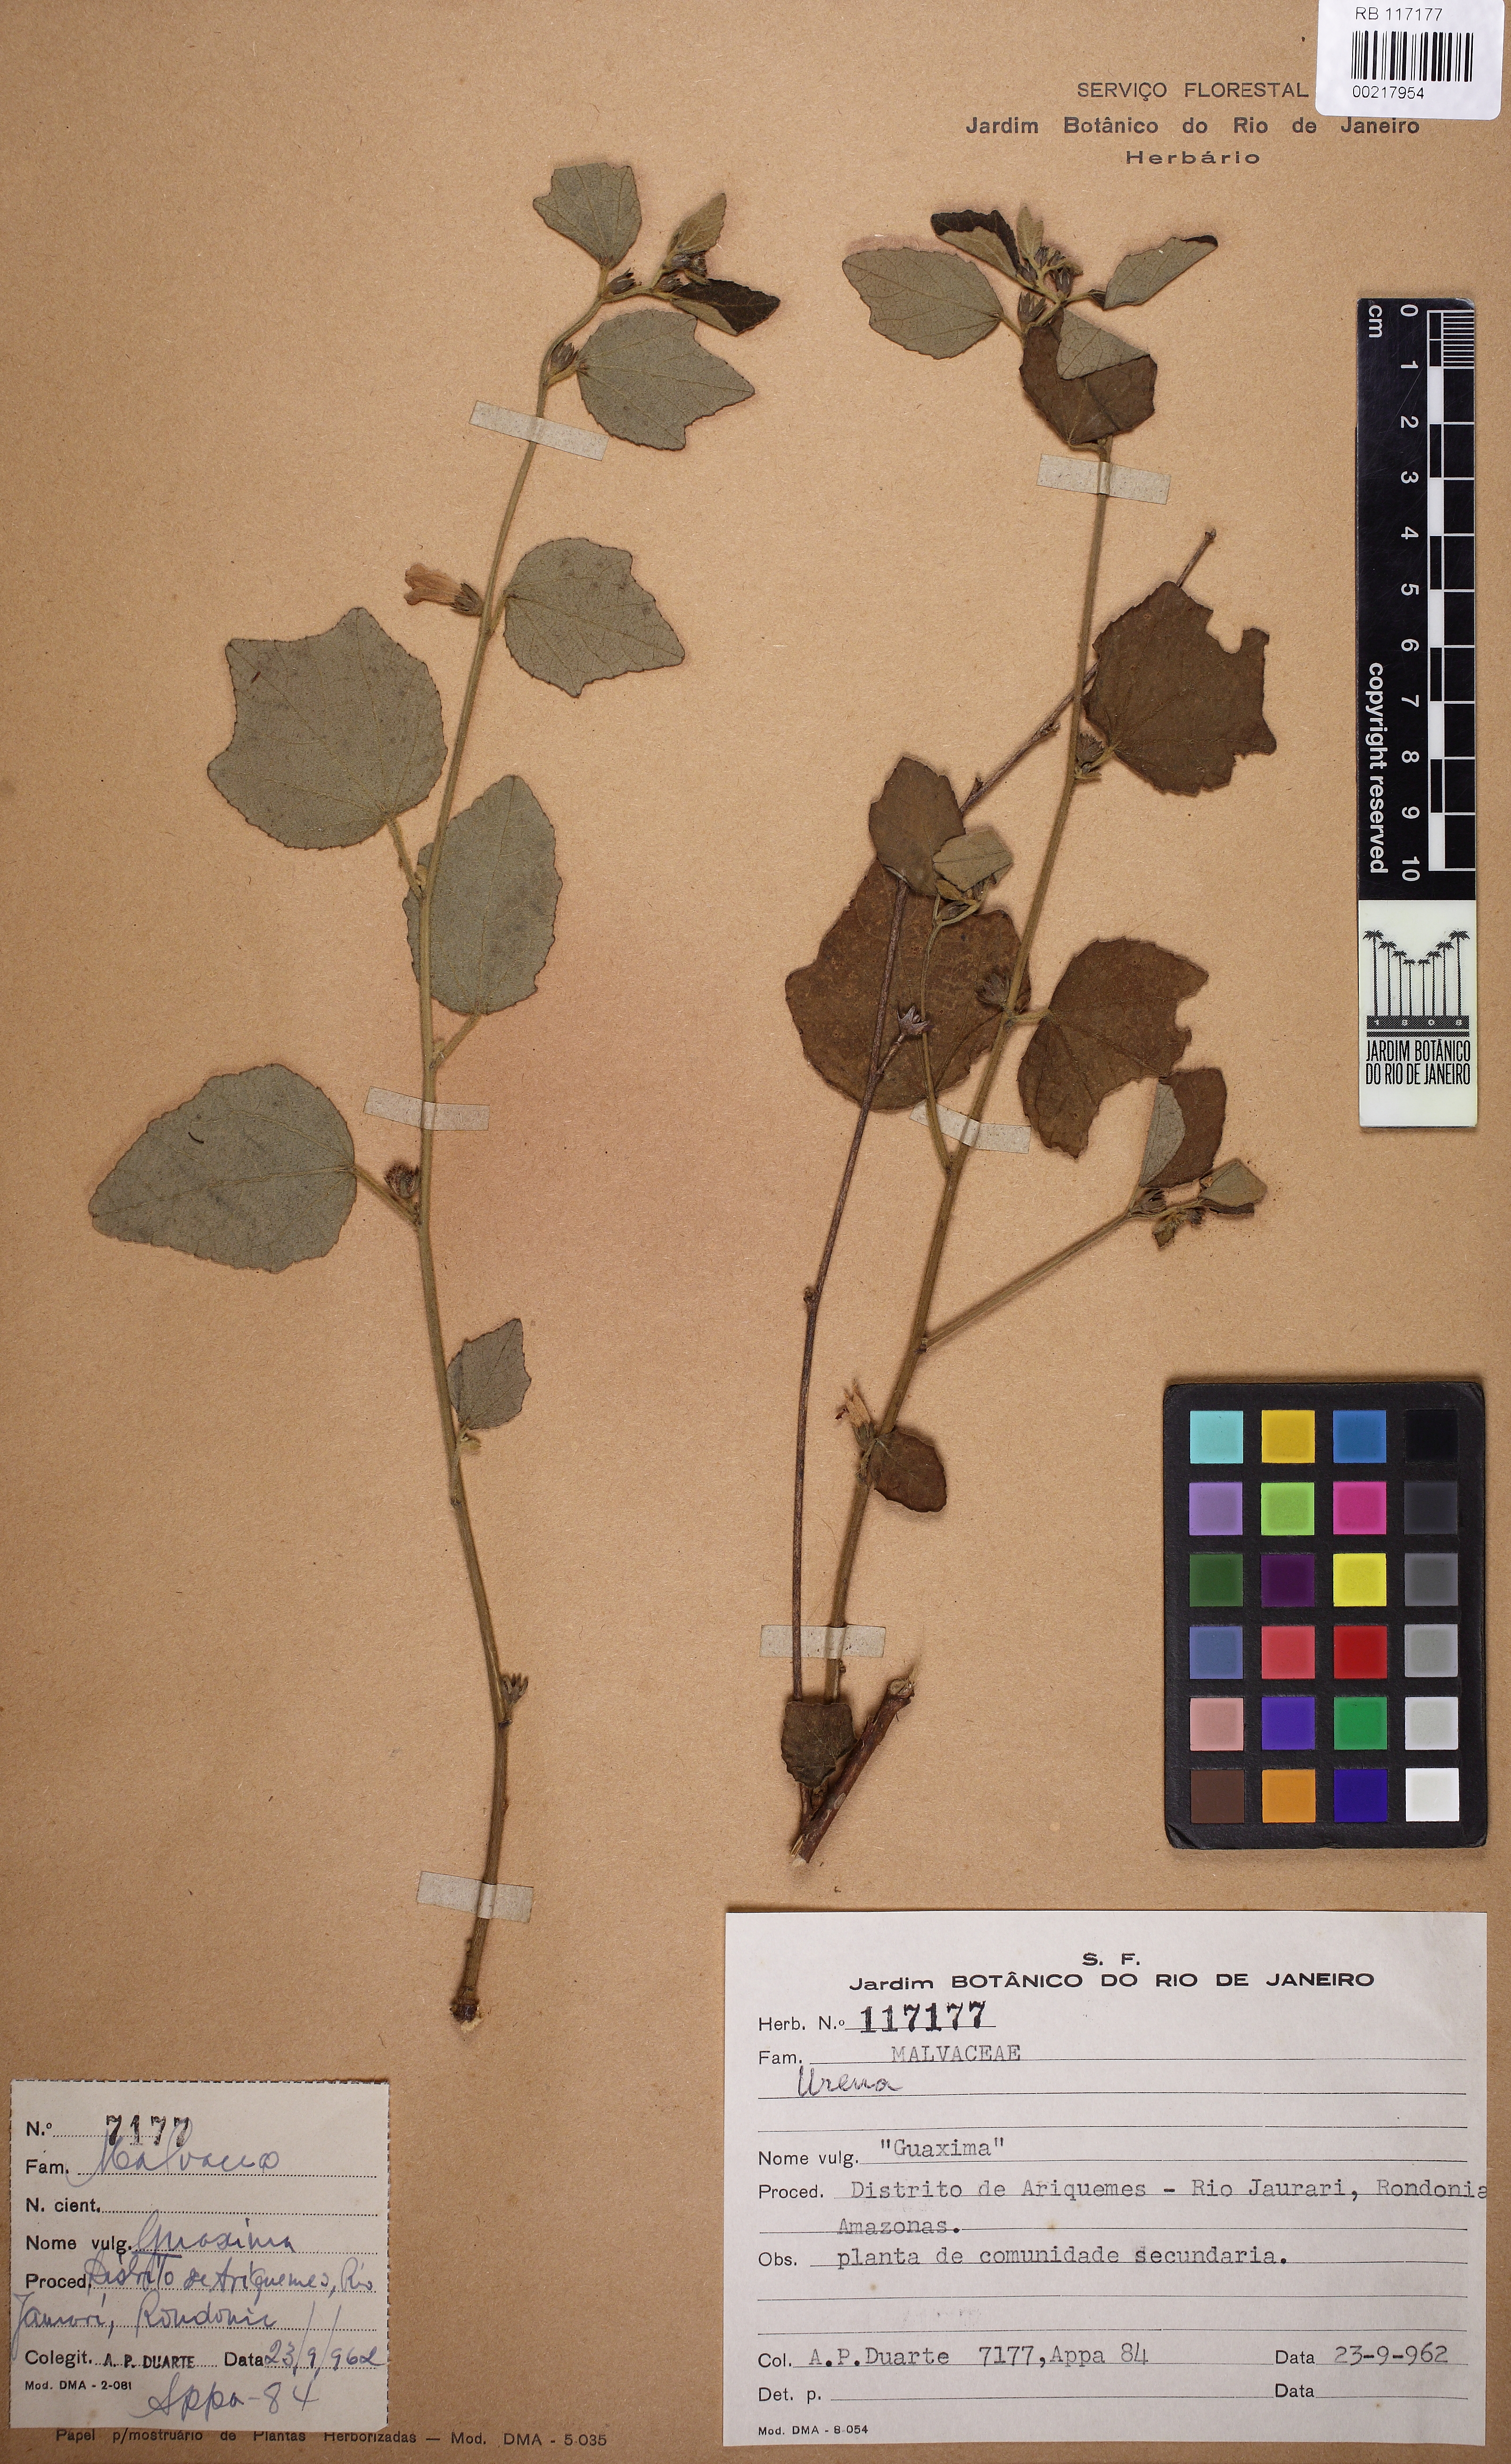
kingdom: Plantae
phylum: Tracheophyta
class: Magnoliopsida
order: Malvales
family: Malvaceae
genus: Urena
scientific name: Urena
